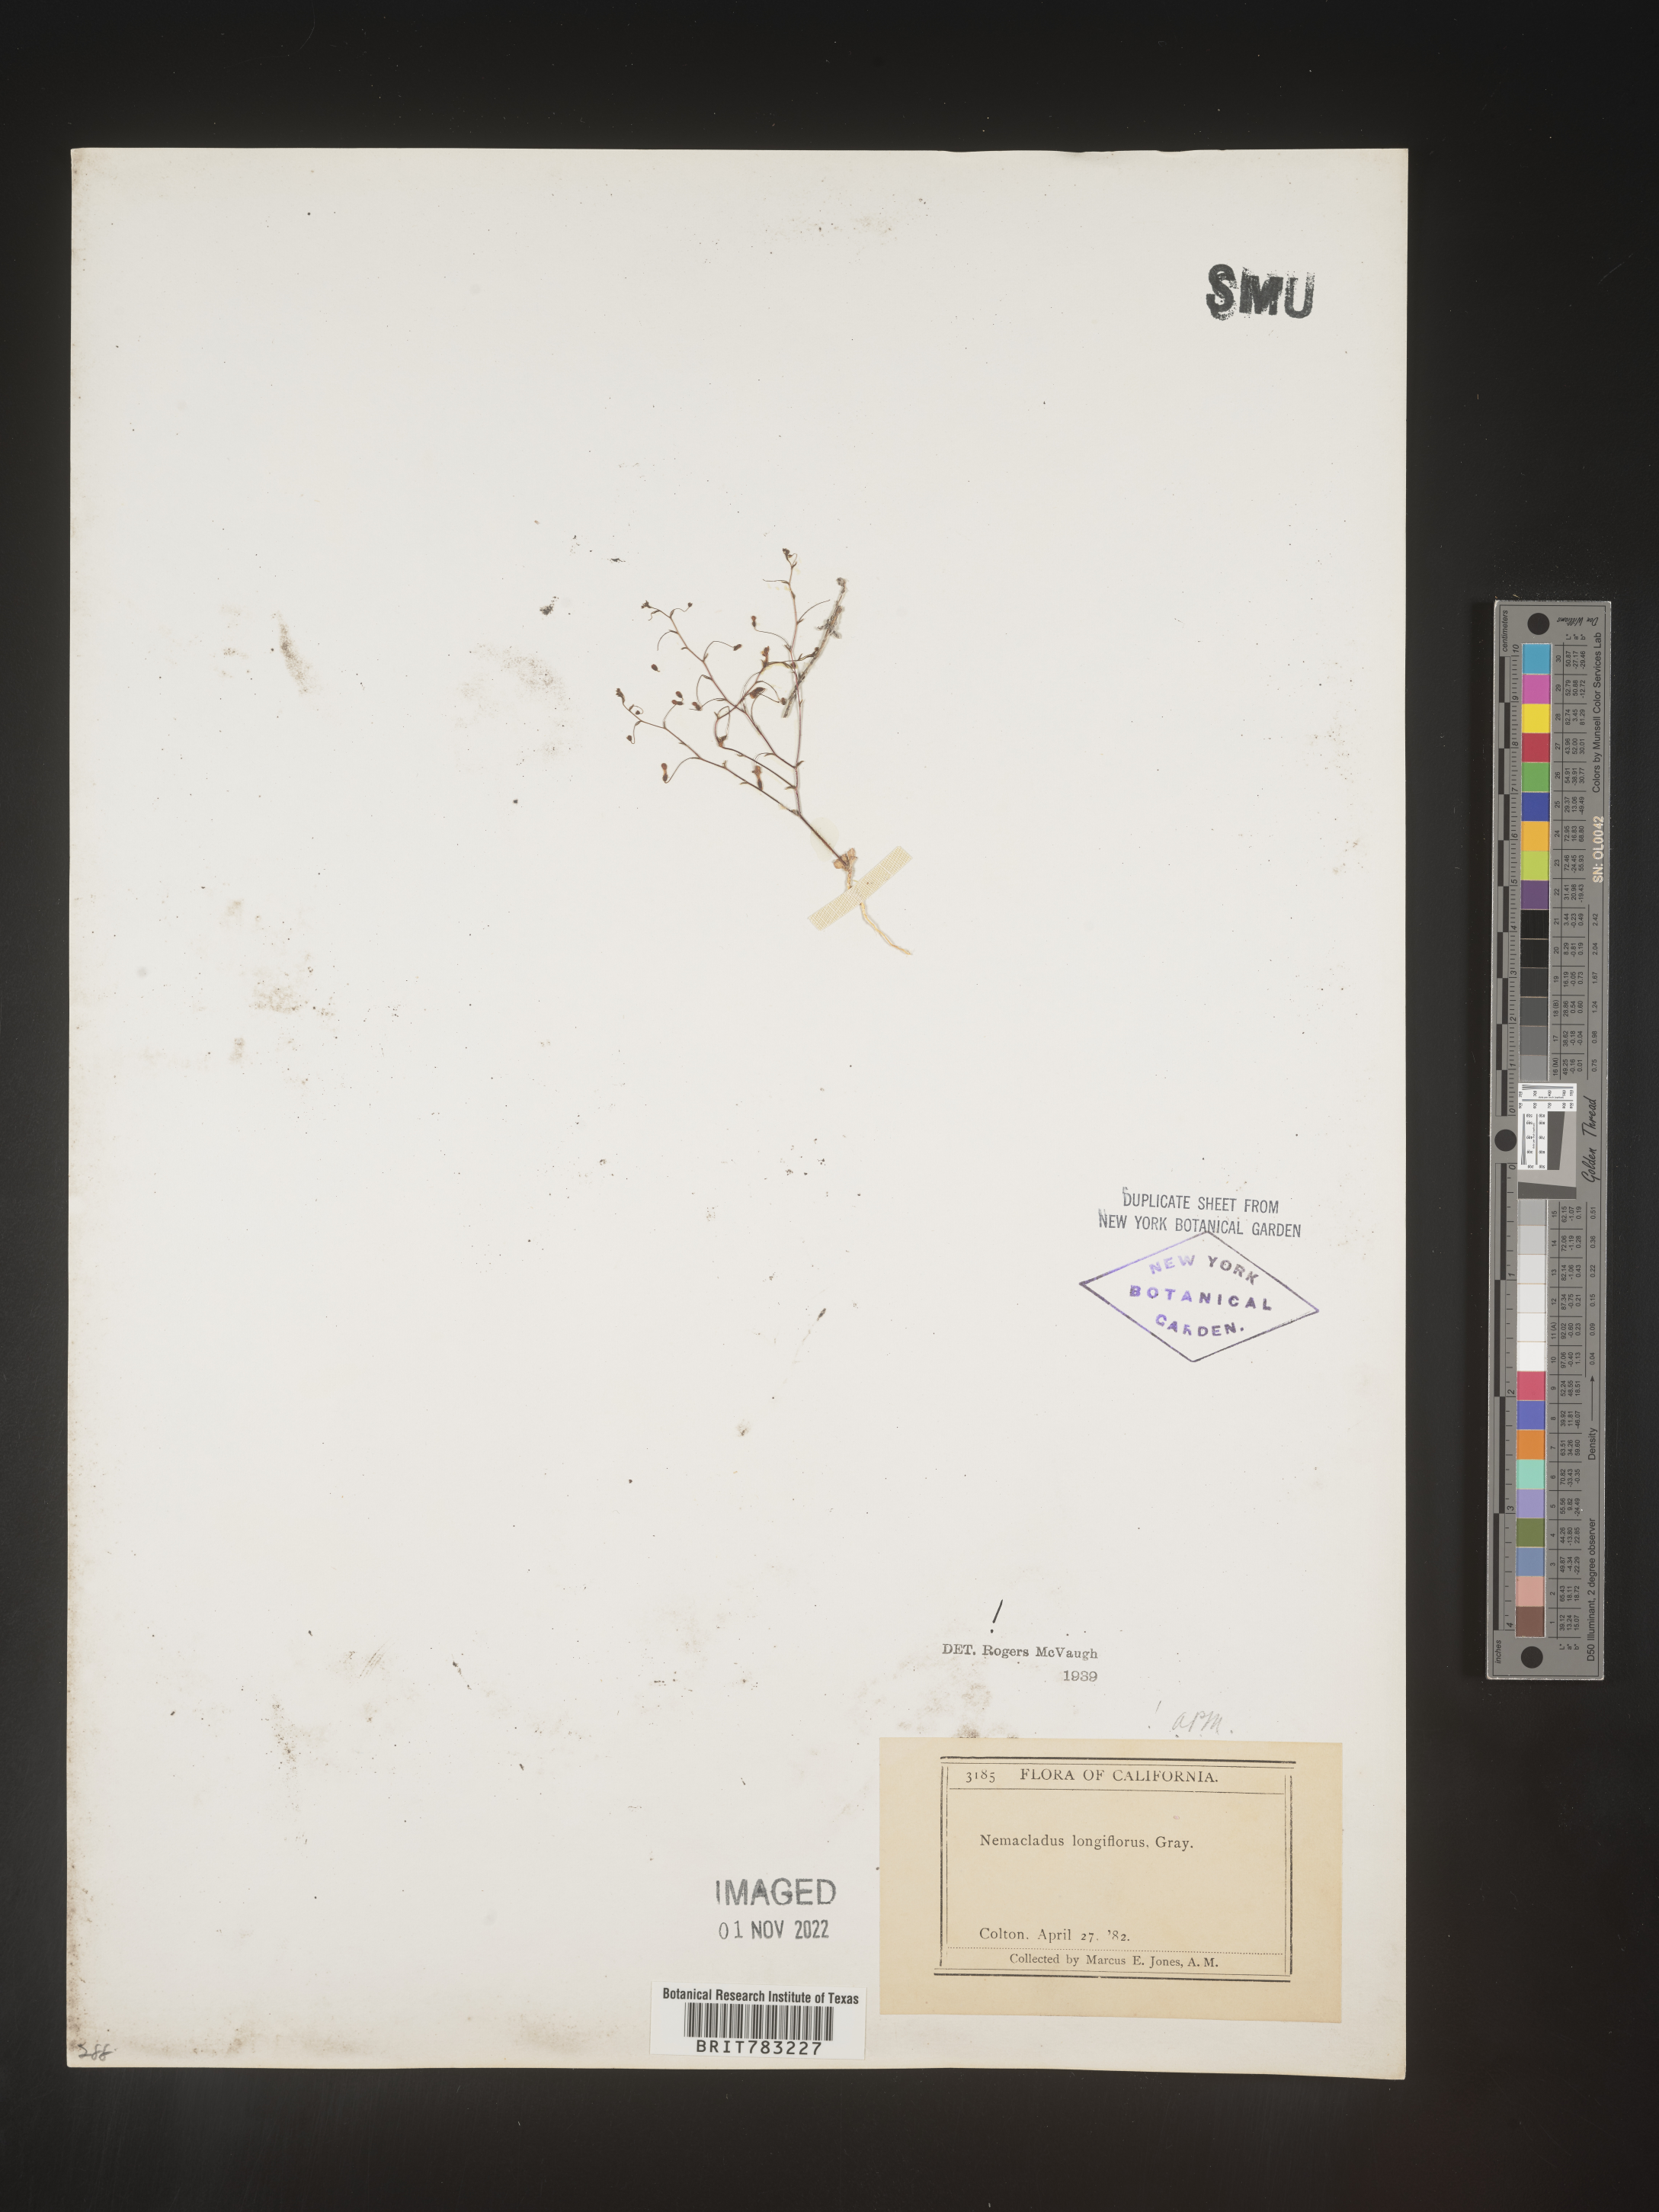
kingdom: Plantae
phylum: Tracheophyta
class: Magnoliopsida
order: Asterales
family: Campanulaceae
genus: Nemacladus
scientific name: Nemacladus
